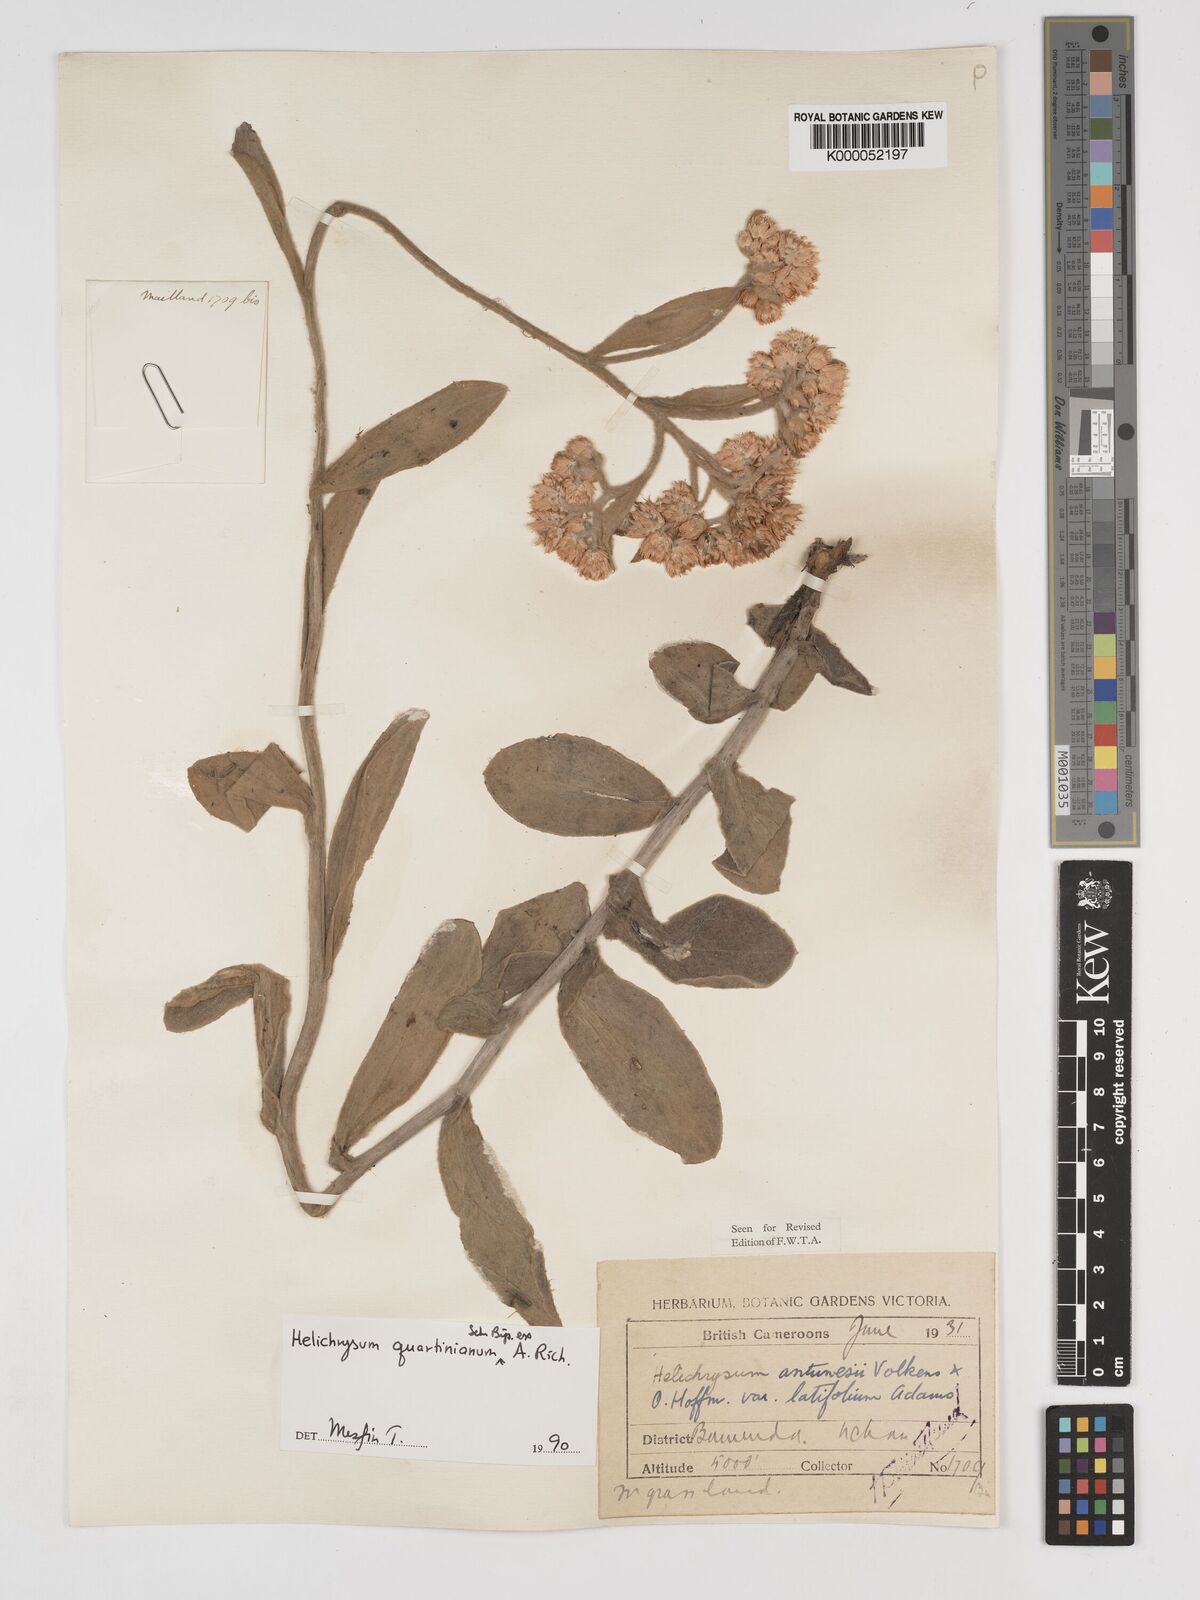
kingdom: Plantae
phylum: Tracheophyta
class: Magnoliopsida
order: Asterales
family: Asteraceae
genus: Helichrysum
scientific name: Helichrysum quartinianum
